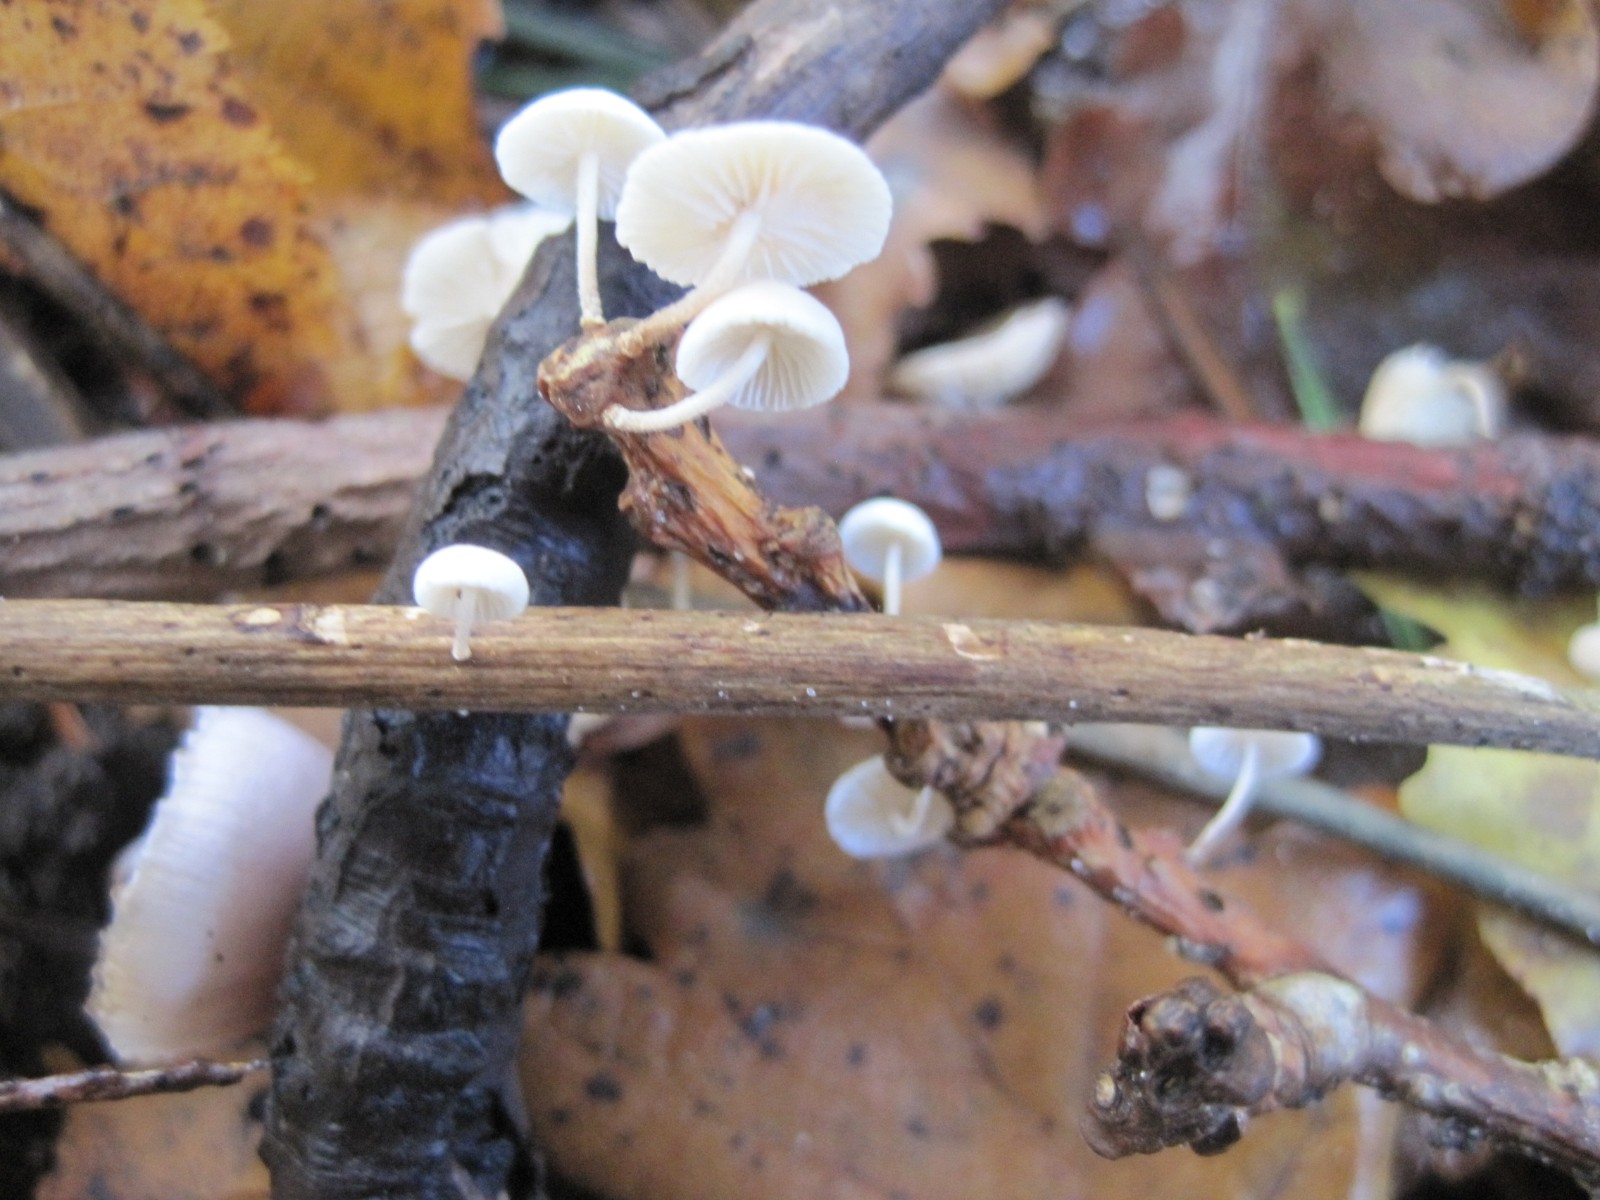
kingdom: Fungi
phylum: Basidiomycota
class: Agaricomycetes
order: Agaricales
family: Omphalotaceae
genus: Collybiopsis
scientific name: Collybiopsis ramealis
